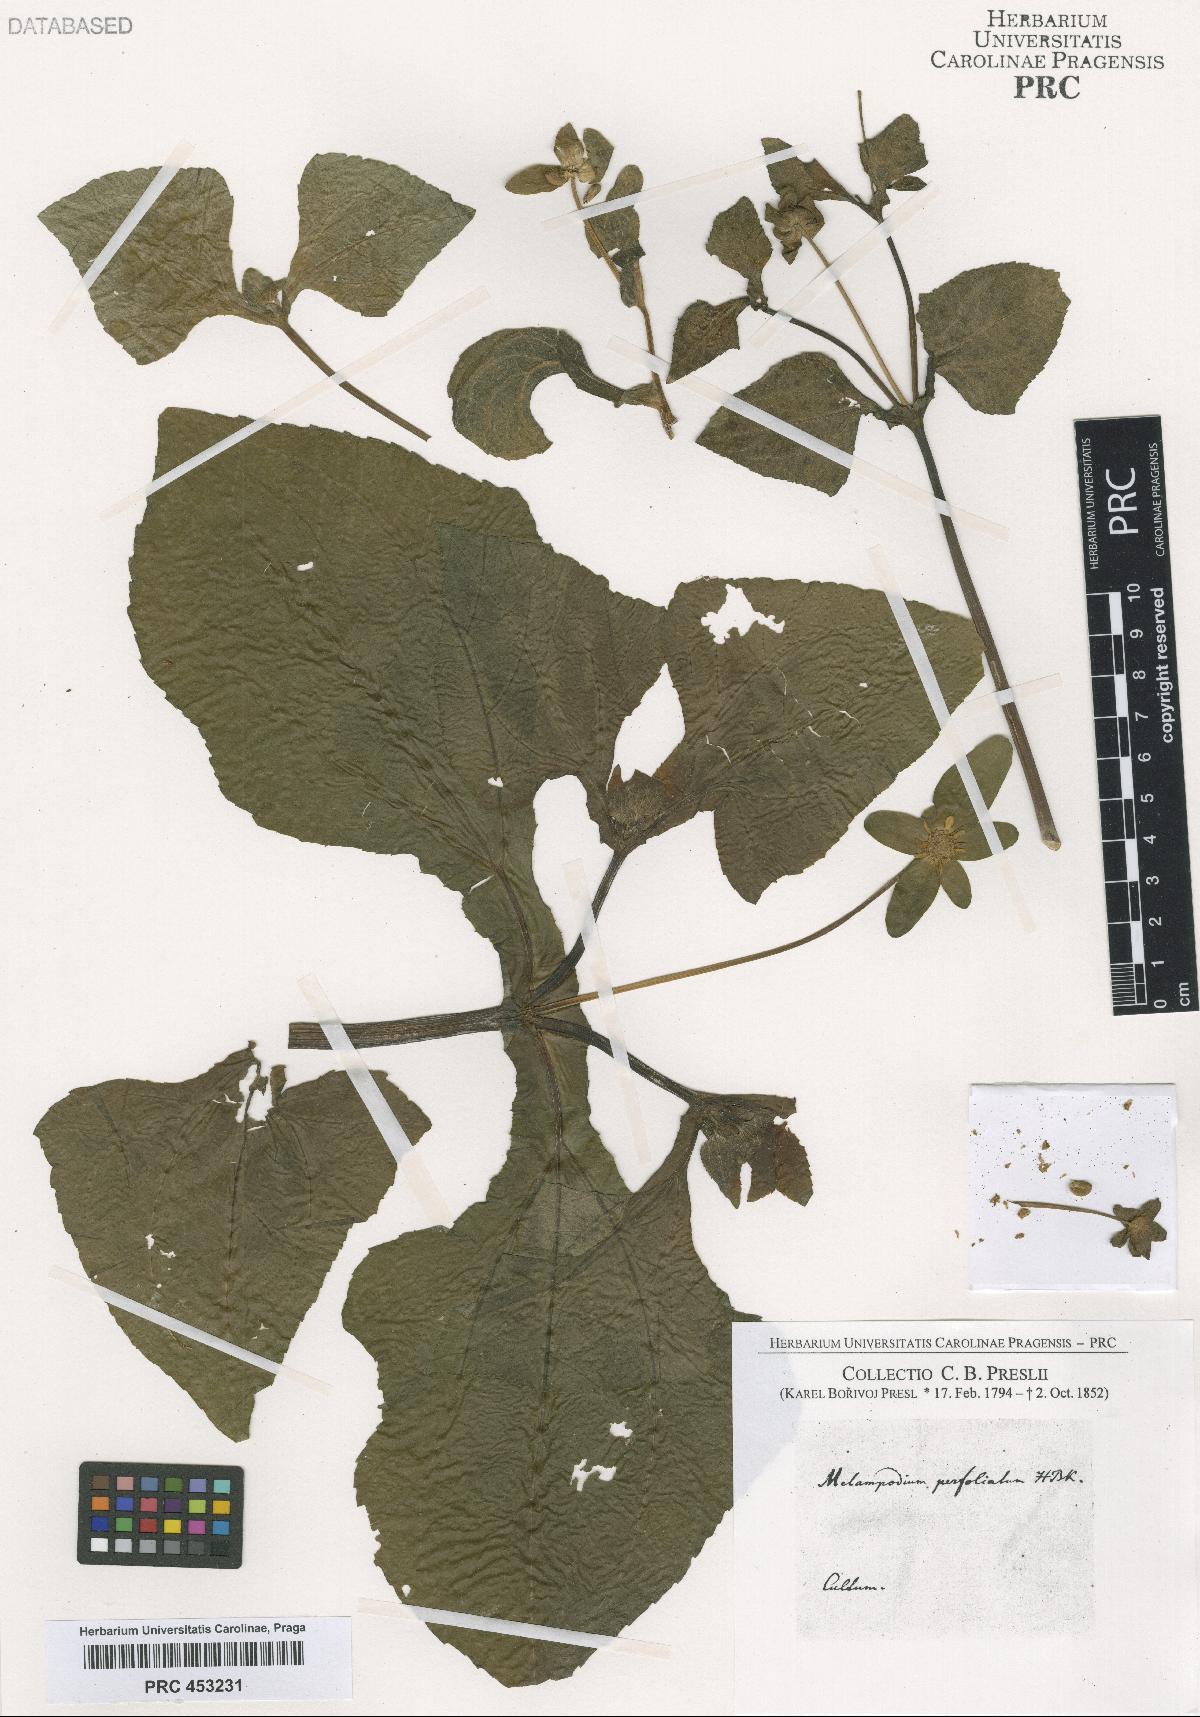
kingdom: Plantae
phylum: Tracheophyta
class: Magnoliopsida
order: Asterales
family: Asteraceae
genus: Melampodium
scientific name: Melampodium perfoliatum
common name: Perfoliate blackfoot
